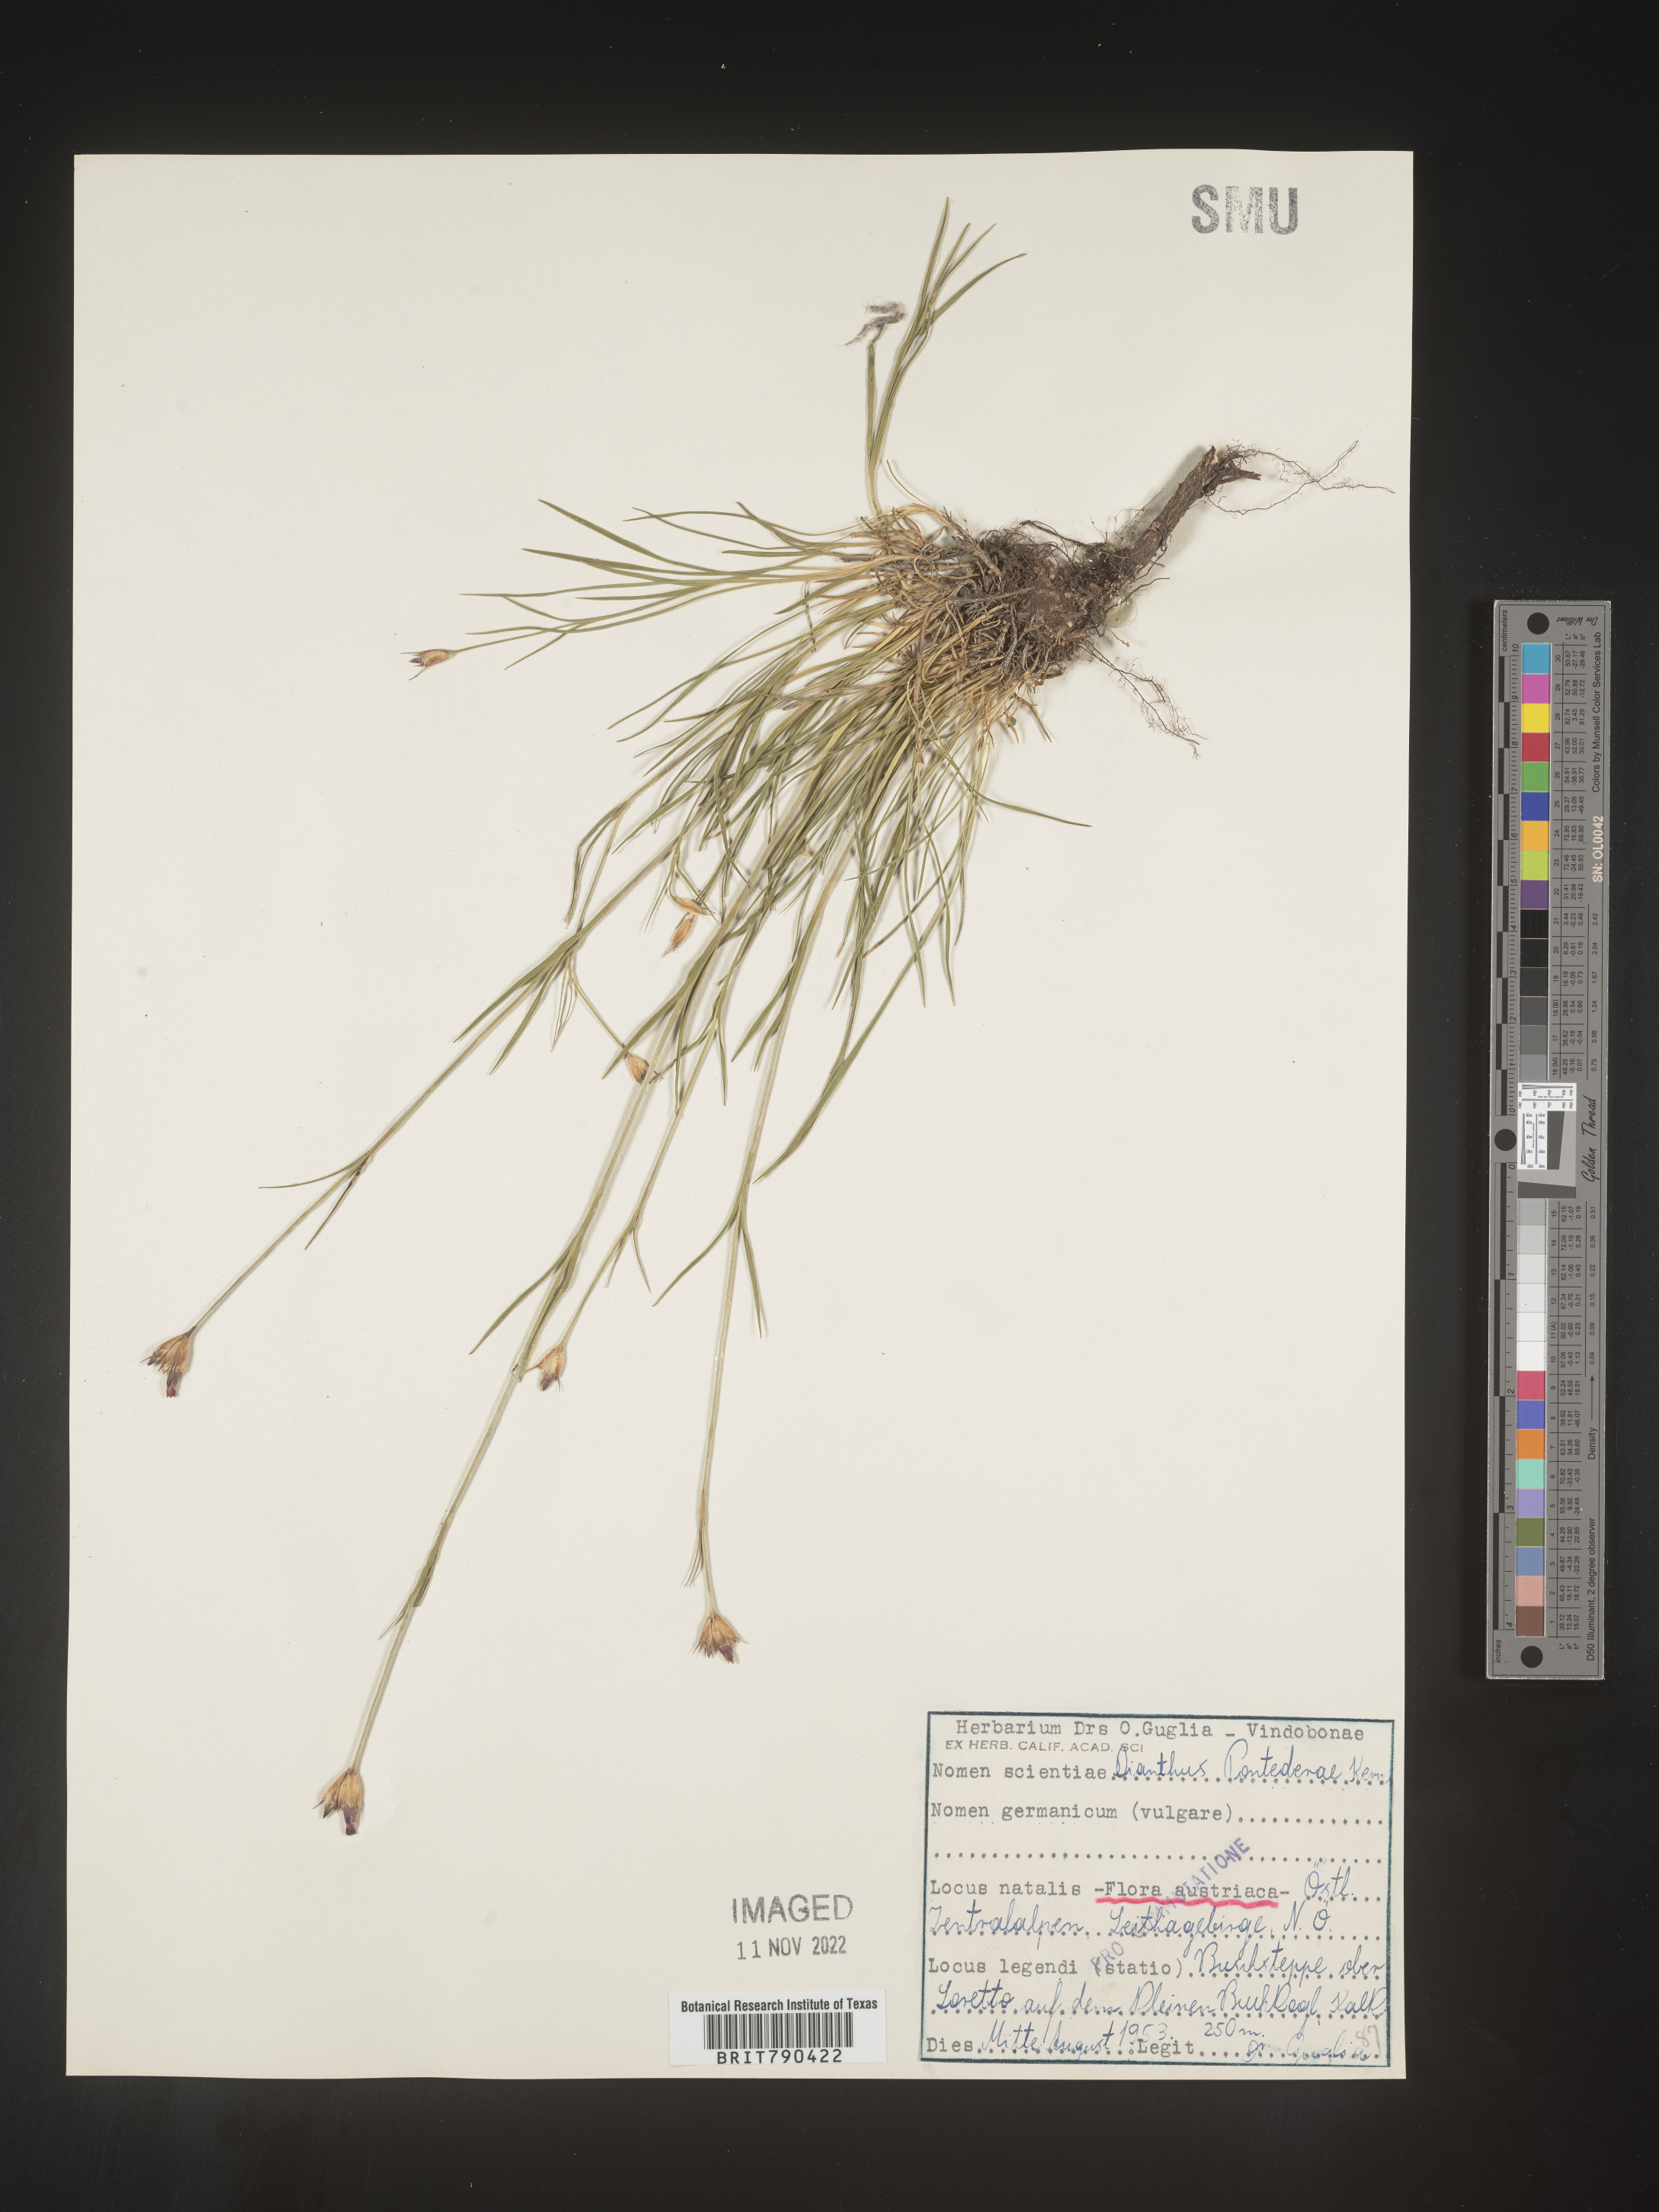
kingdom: Plantae
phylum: Tracheophyta
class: Magnoliopsida
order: Caryophyllales
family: Caryophyllaceae
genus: Dianthus
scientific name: Dianthus
